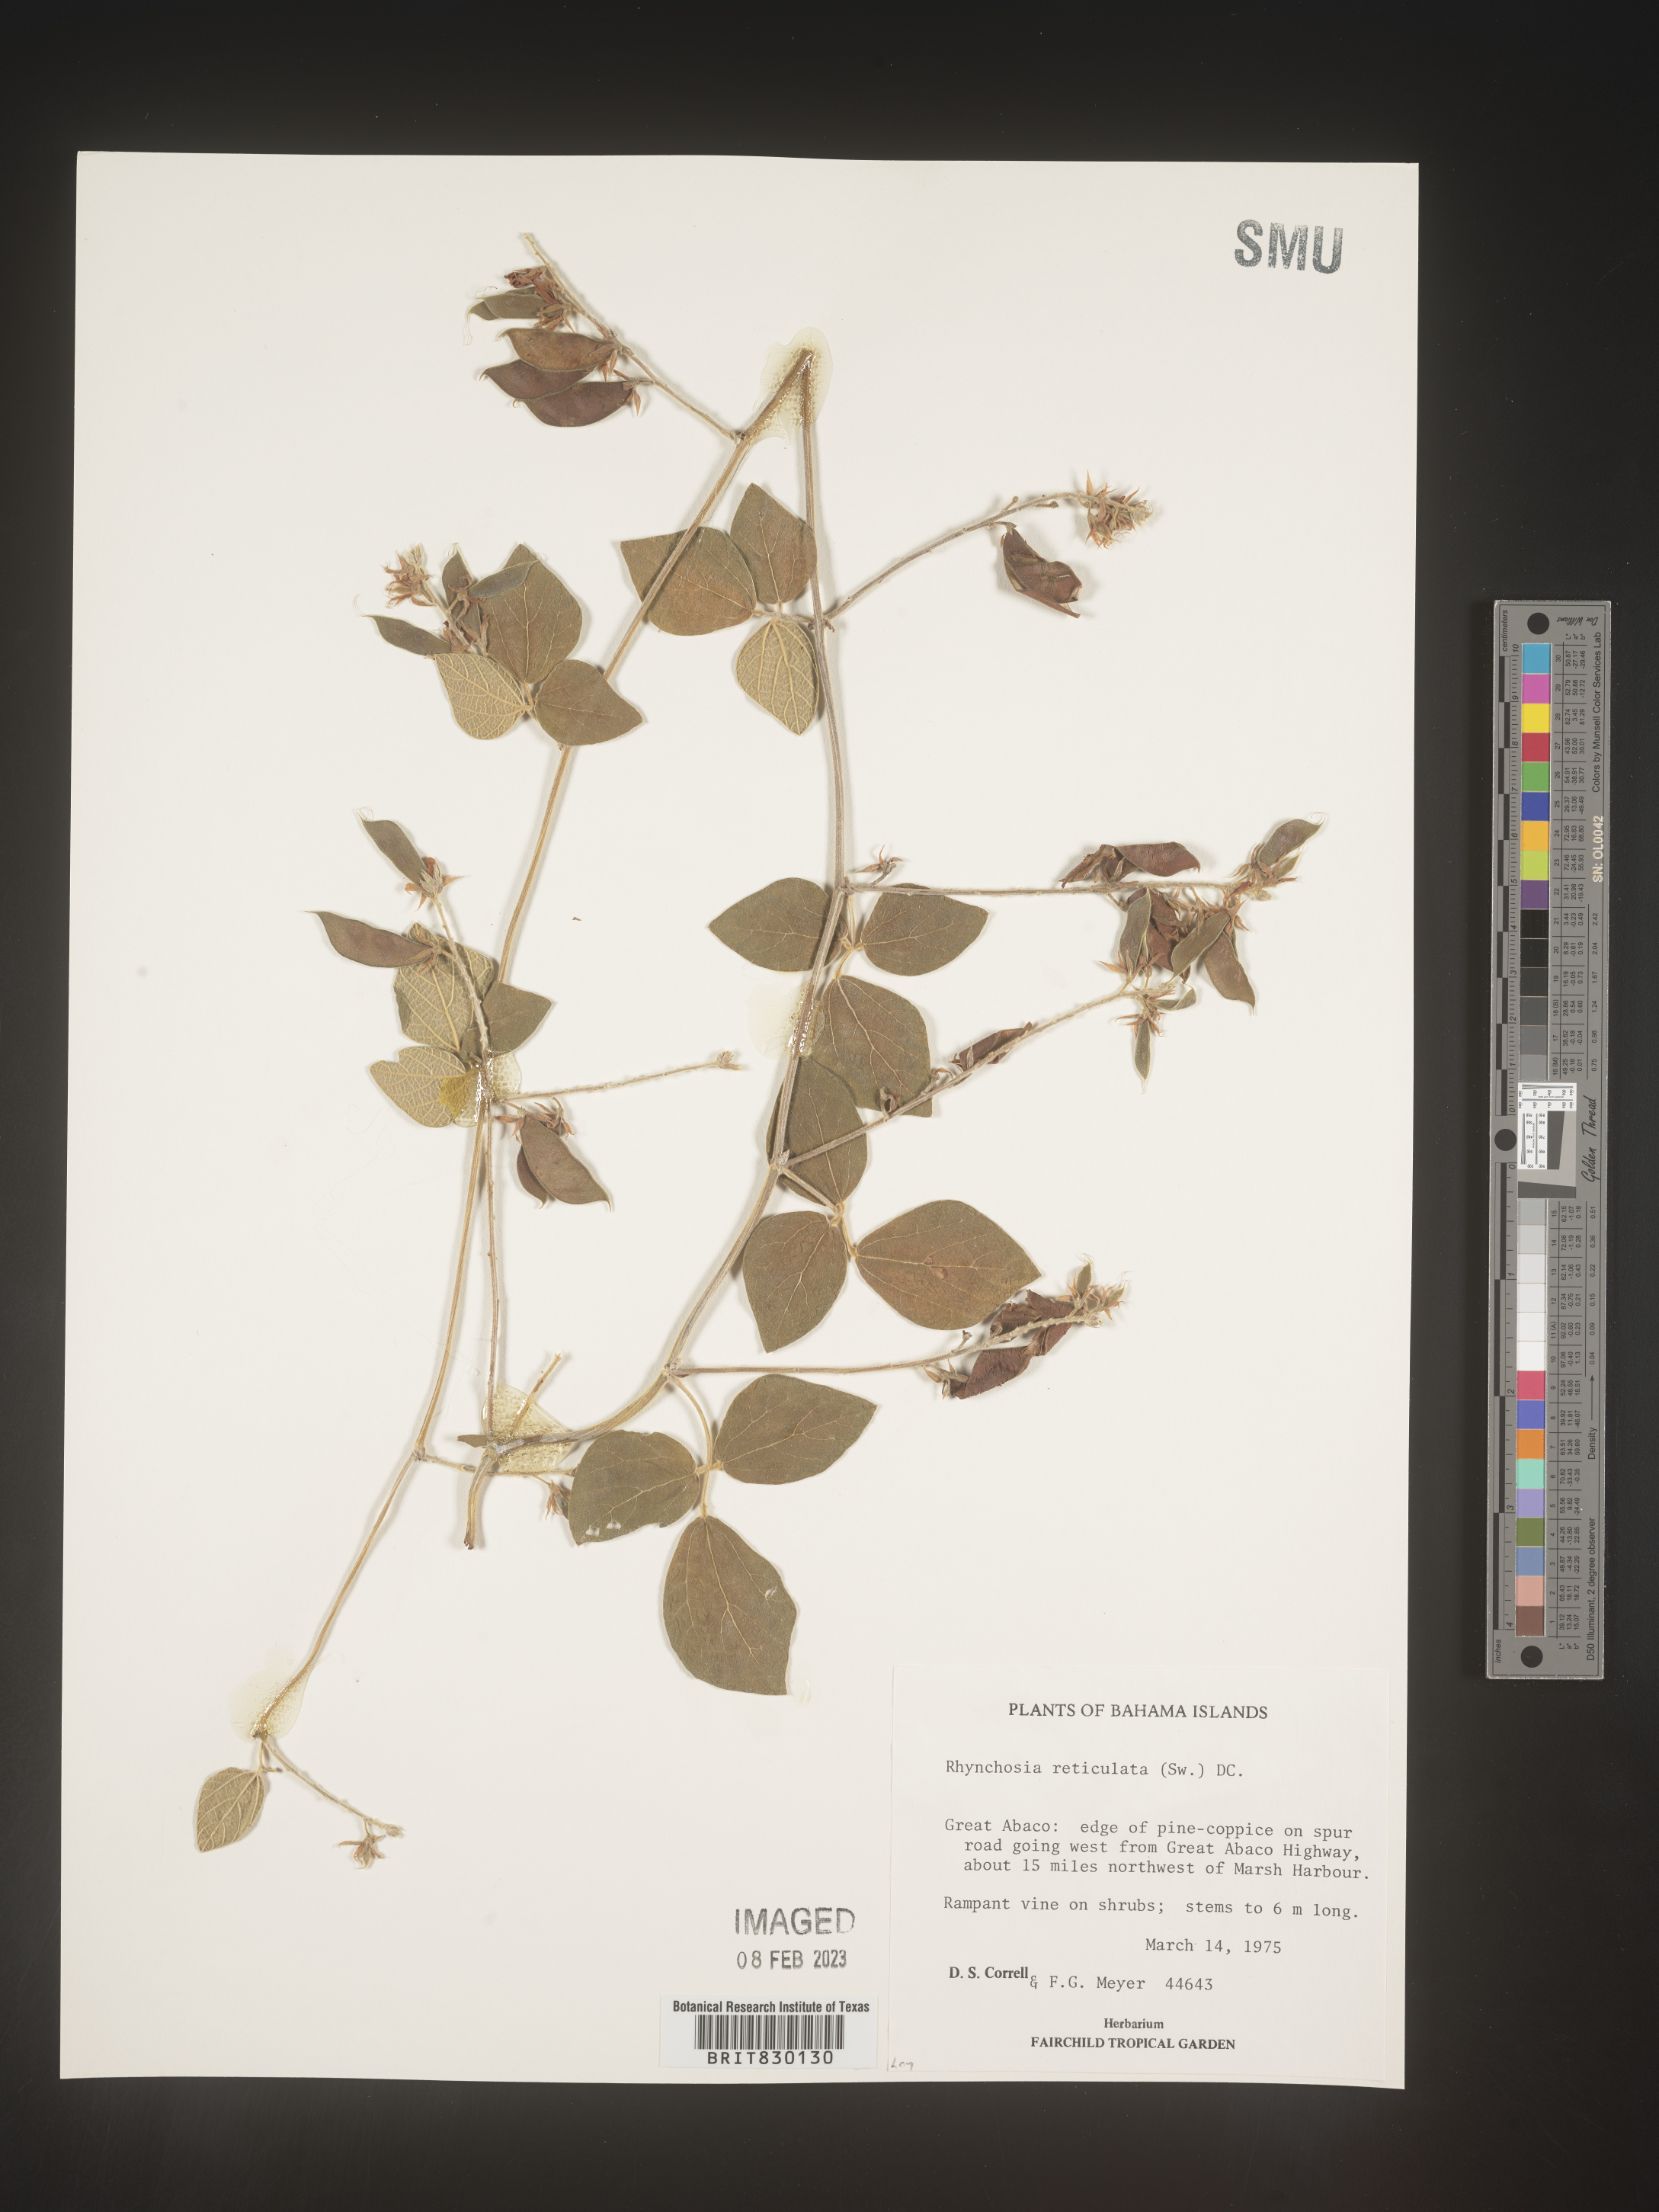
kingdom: Plantae
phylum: Tracheophyta
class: Magnoliopsida
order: Fabales
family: Fabaceae
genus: Rhynchosia
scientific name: Rhynchosia
